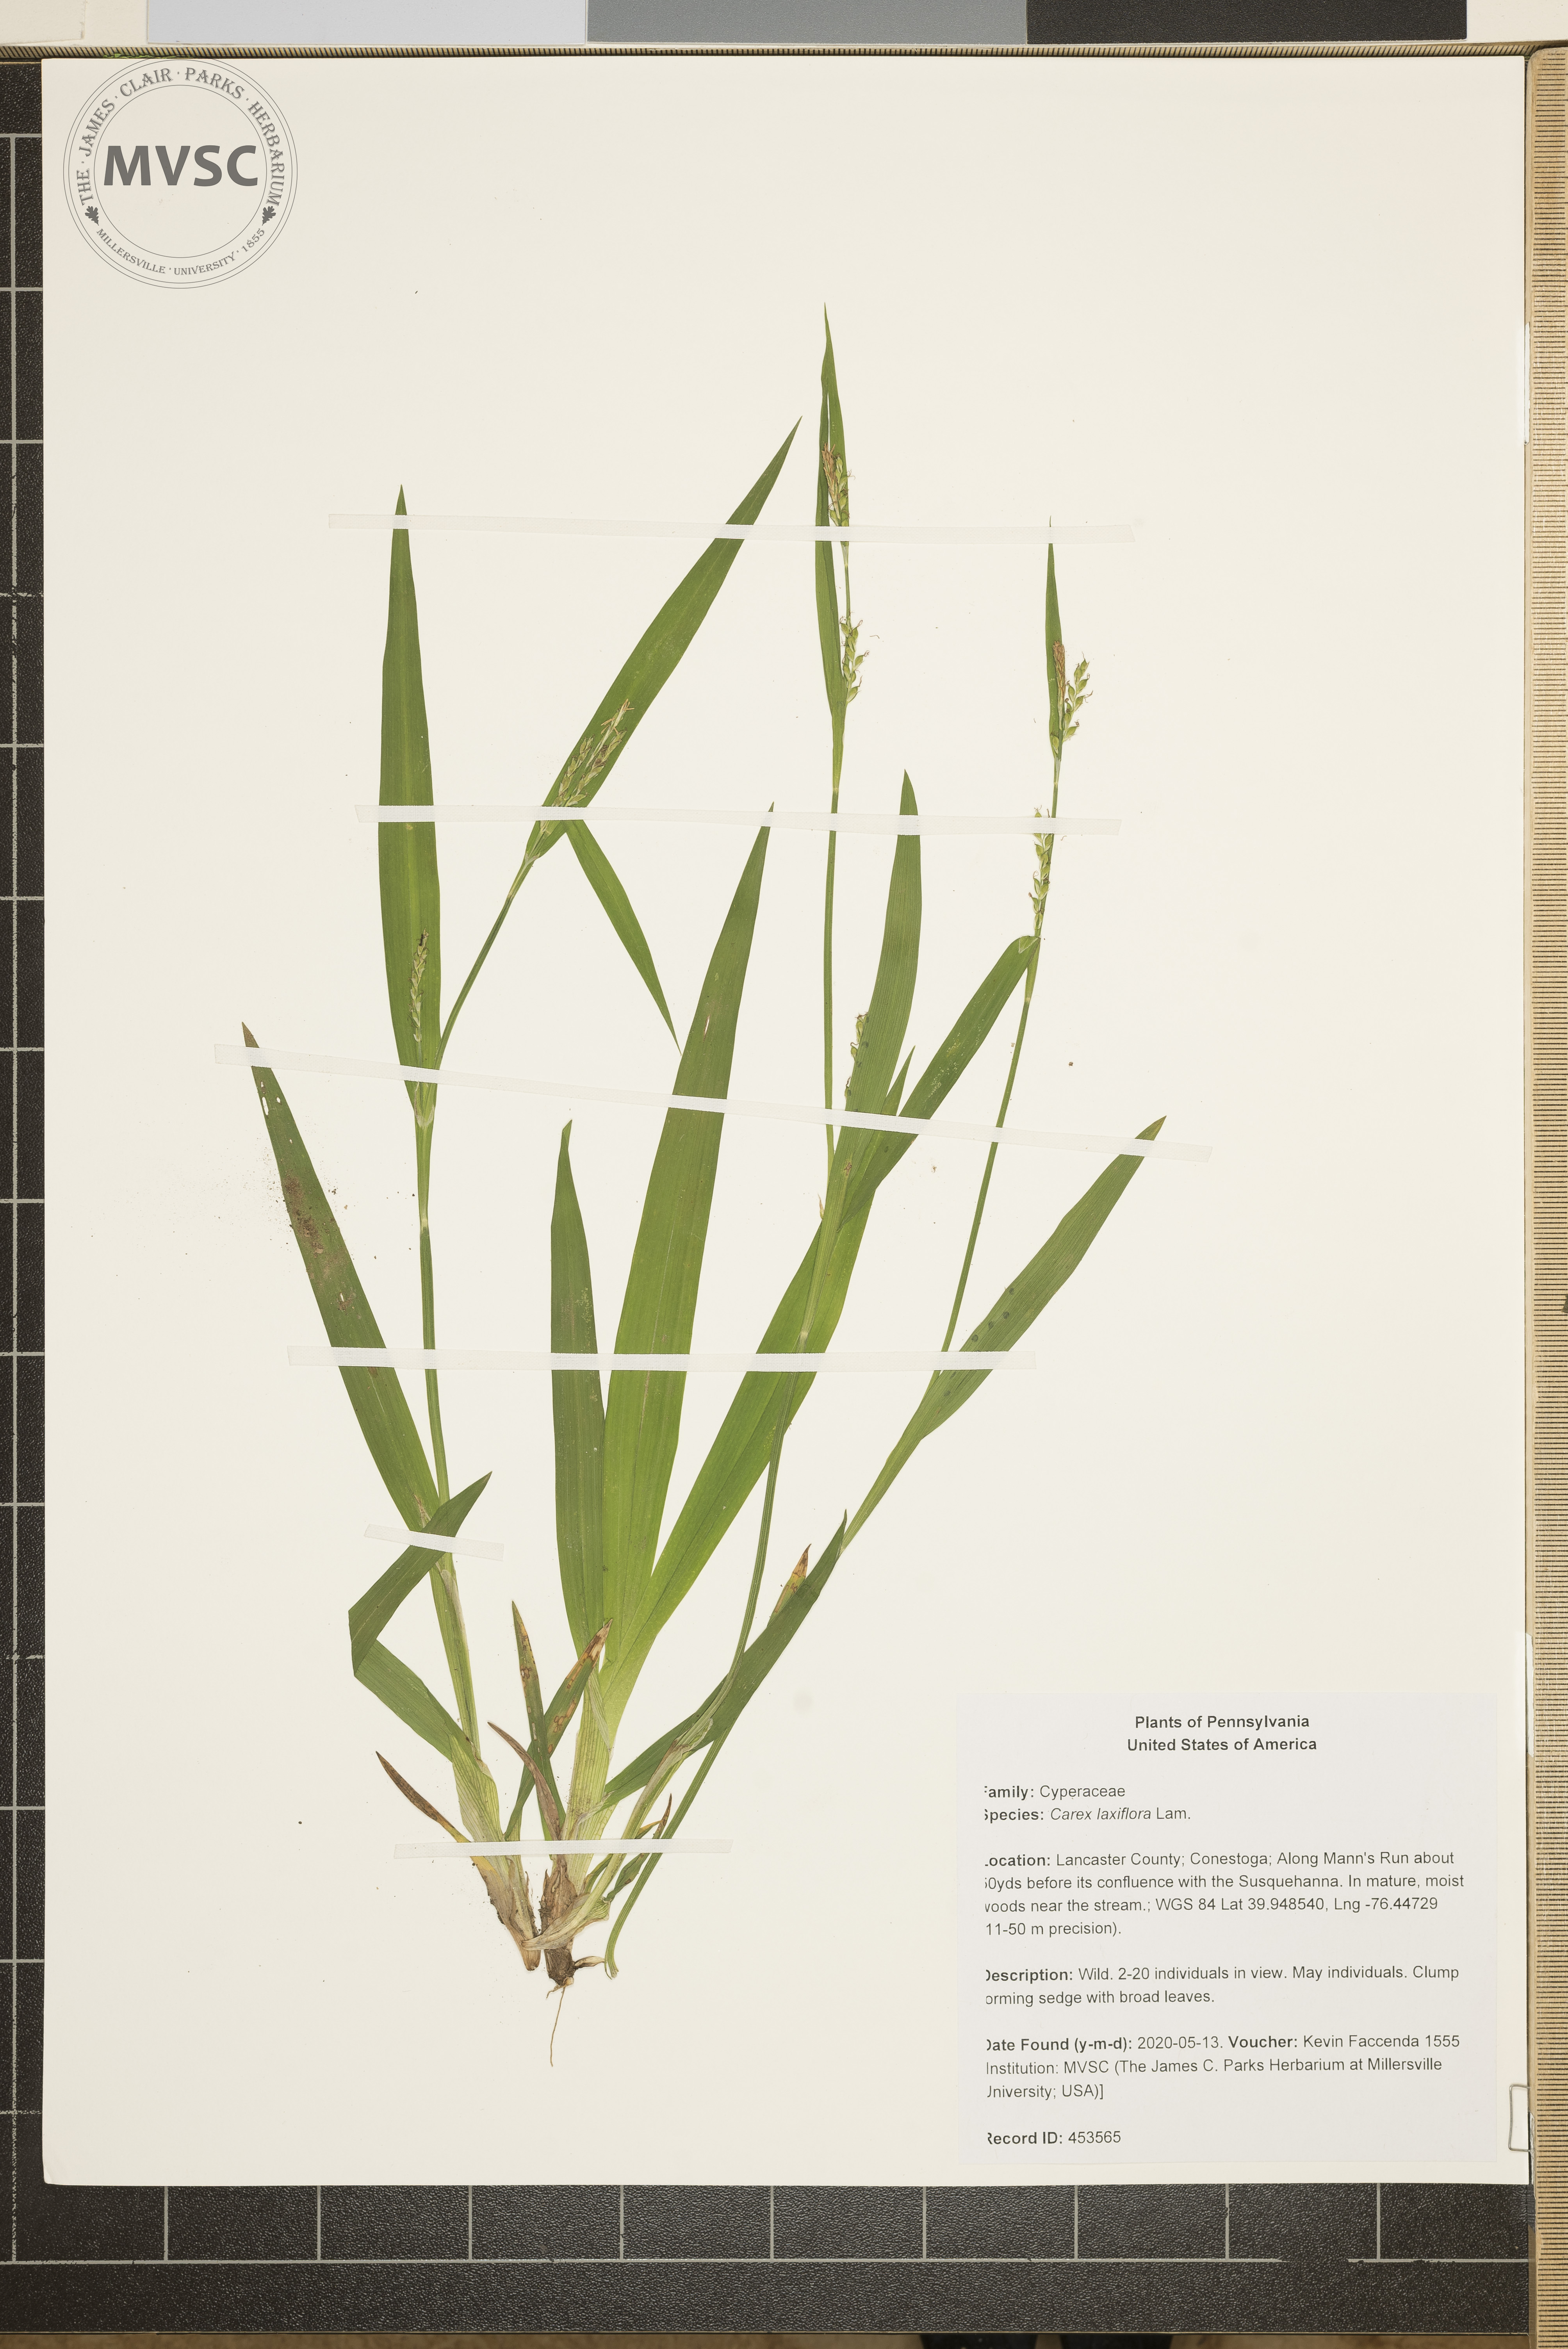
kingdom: Plantae
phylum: Tracheophyta
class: Liliopsida
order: Poales
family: Cyperaceae
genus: Carex
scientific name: Carex laxiflora
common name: Beech wood sedge
